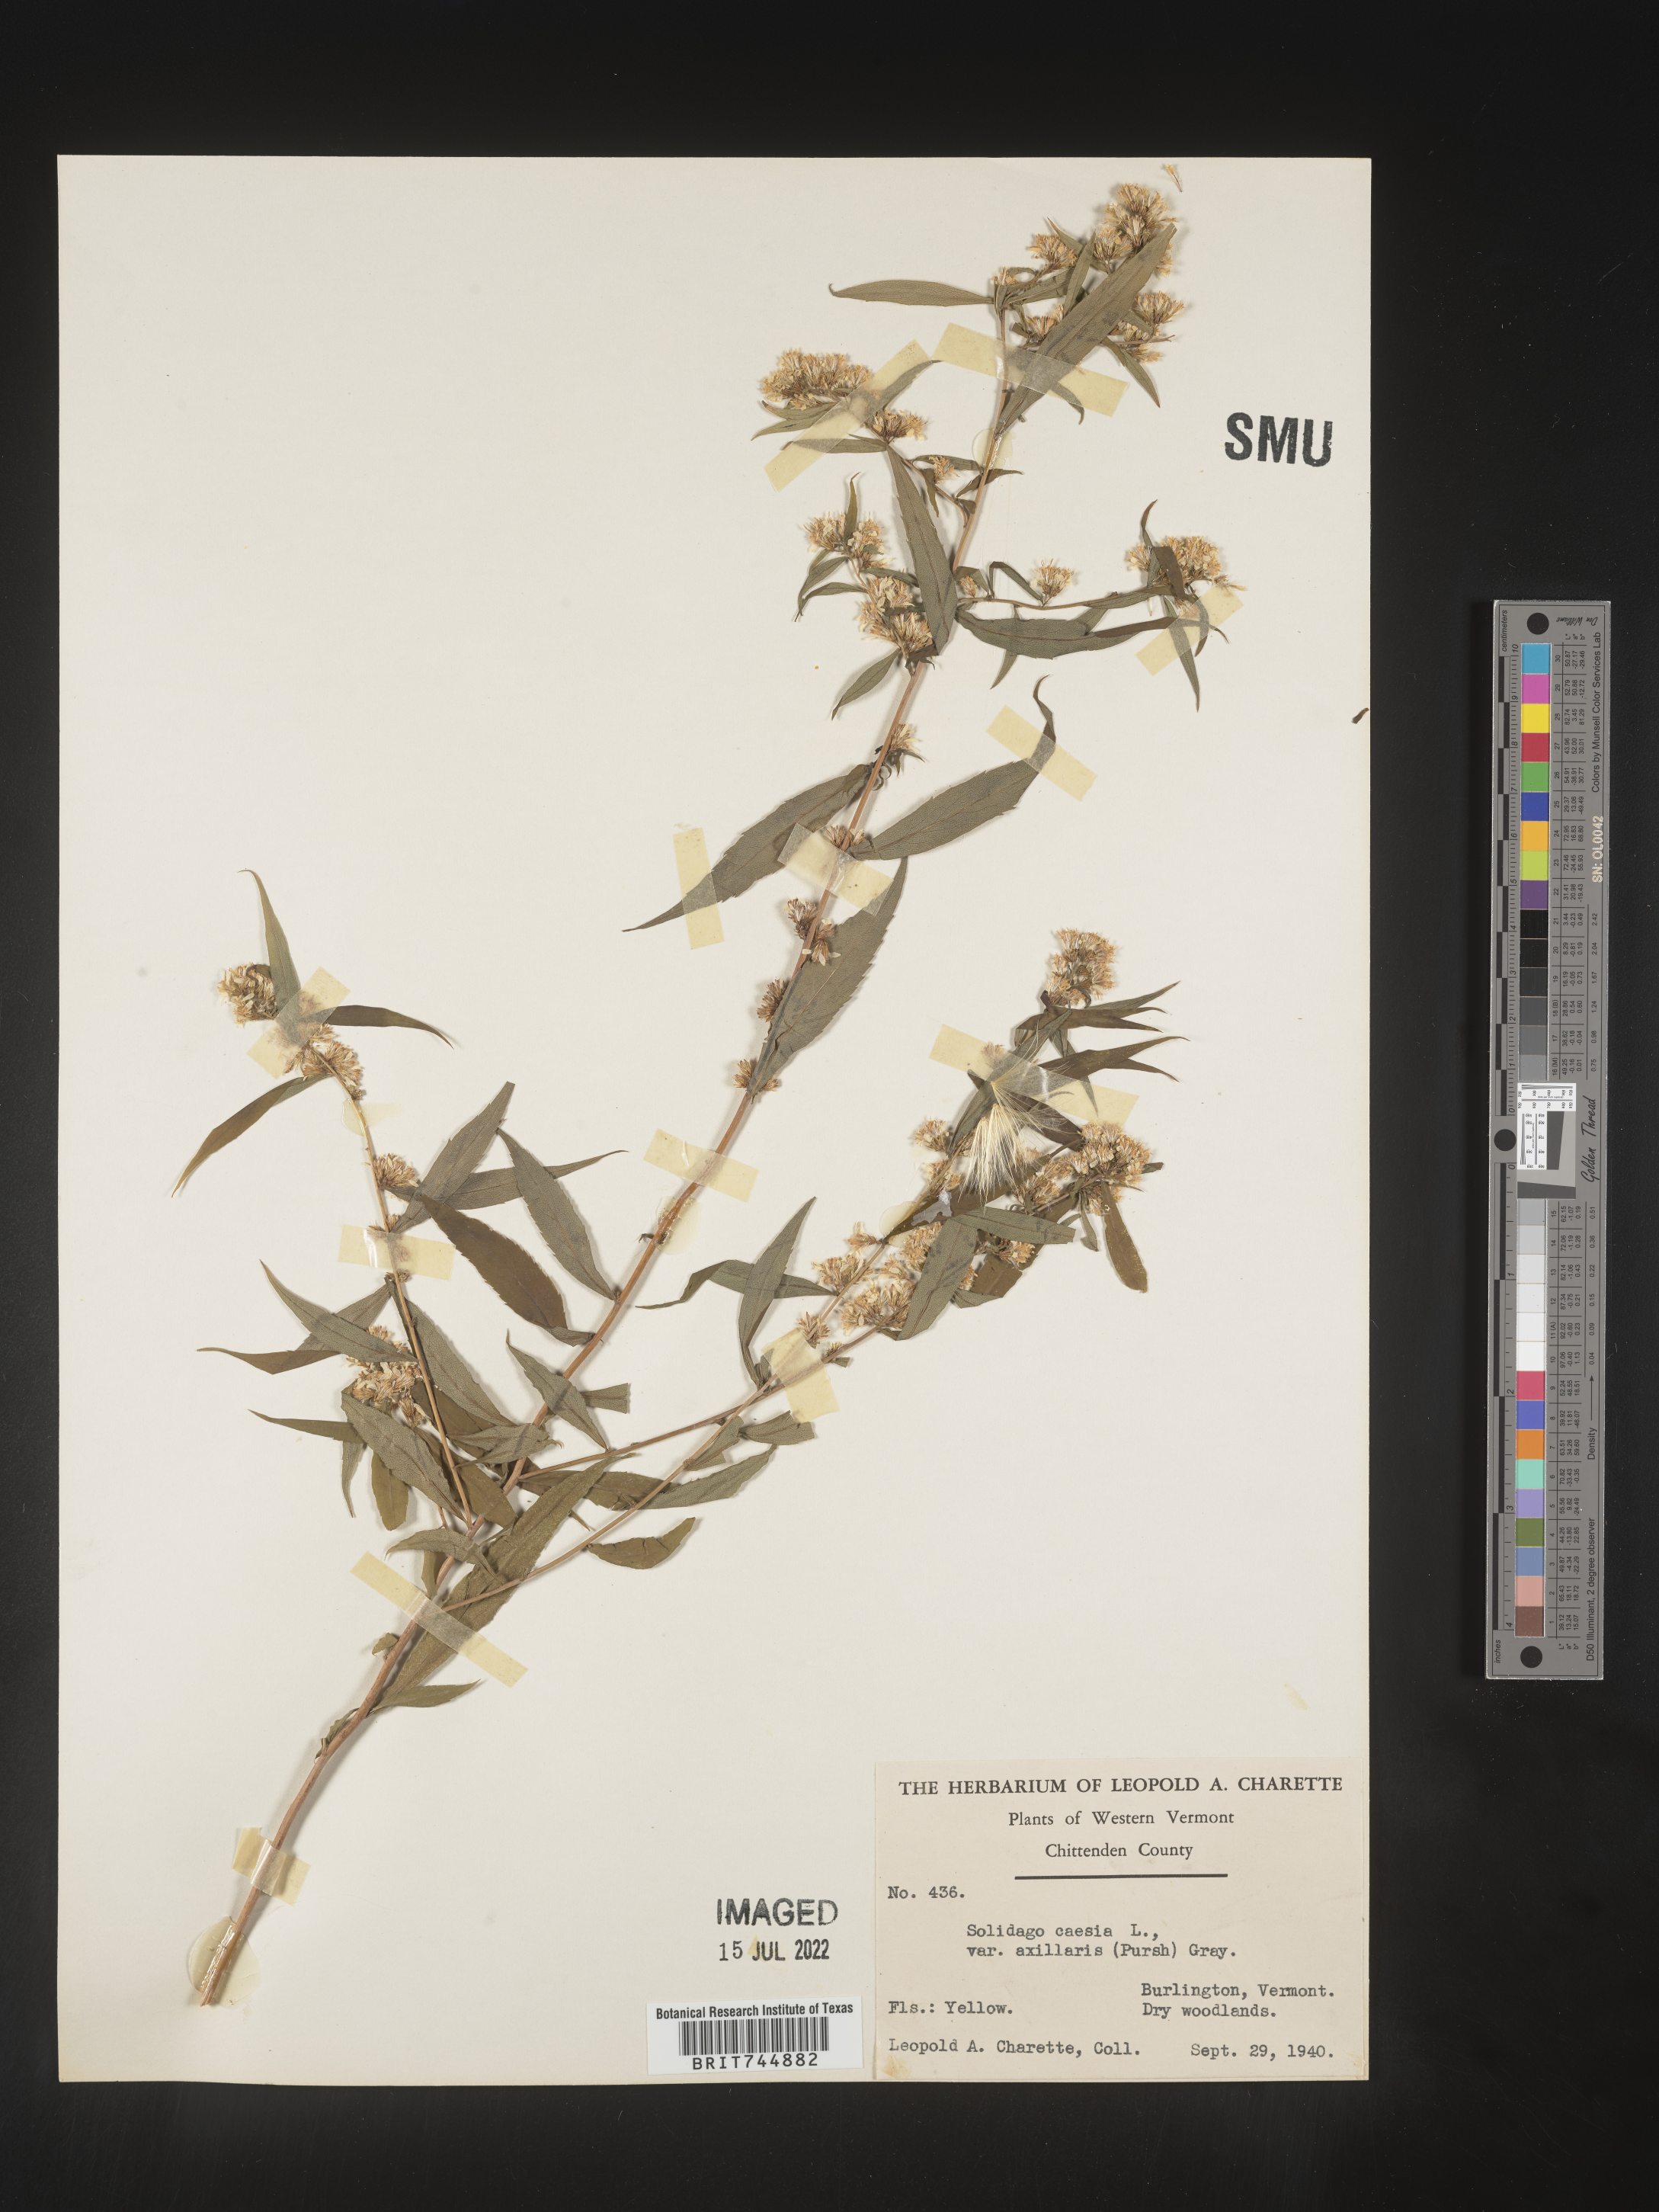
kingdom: Plantae
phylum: Tracheophyta
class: Magnoliopsida
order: Asterales
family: Asteraceae
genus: Solidago
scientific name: Solidago caesia
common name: Woodland goldenrod
